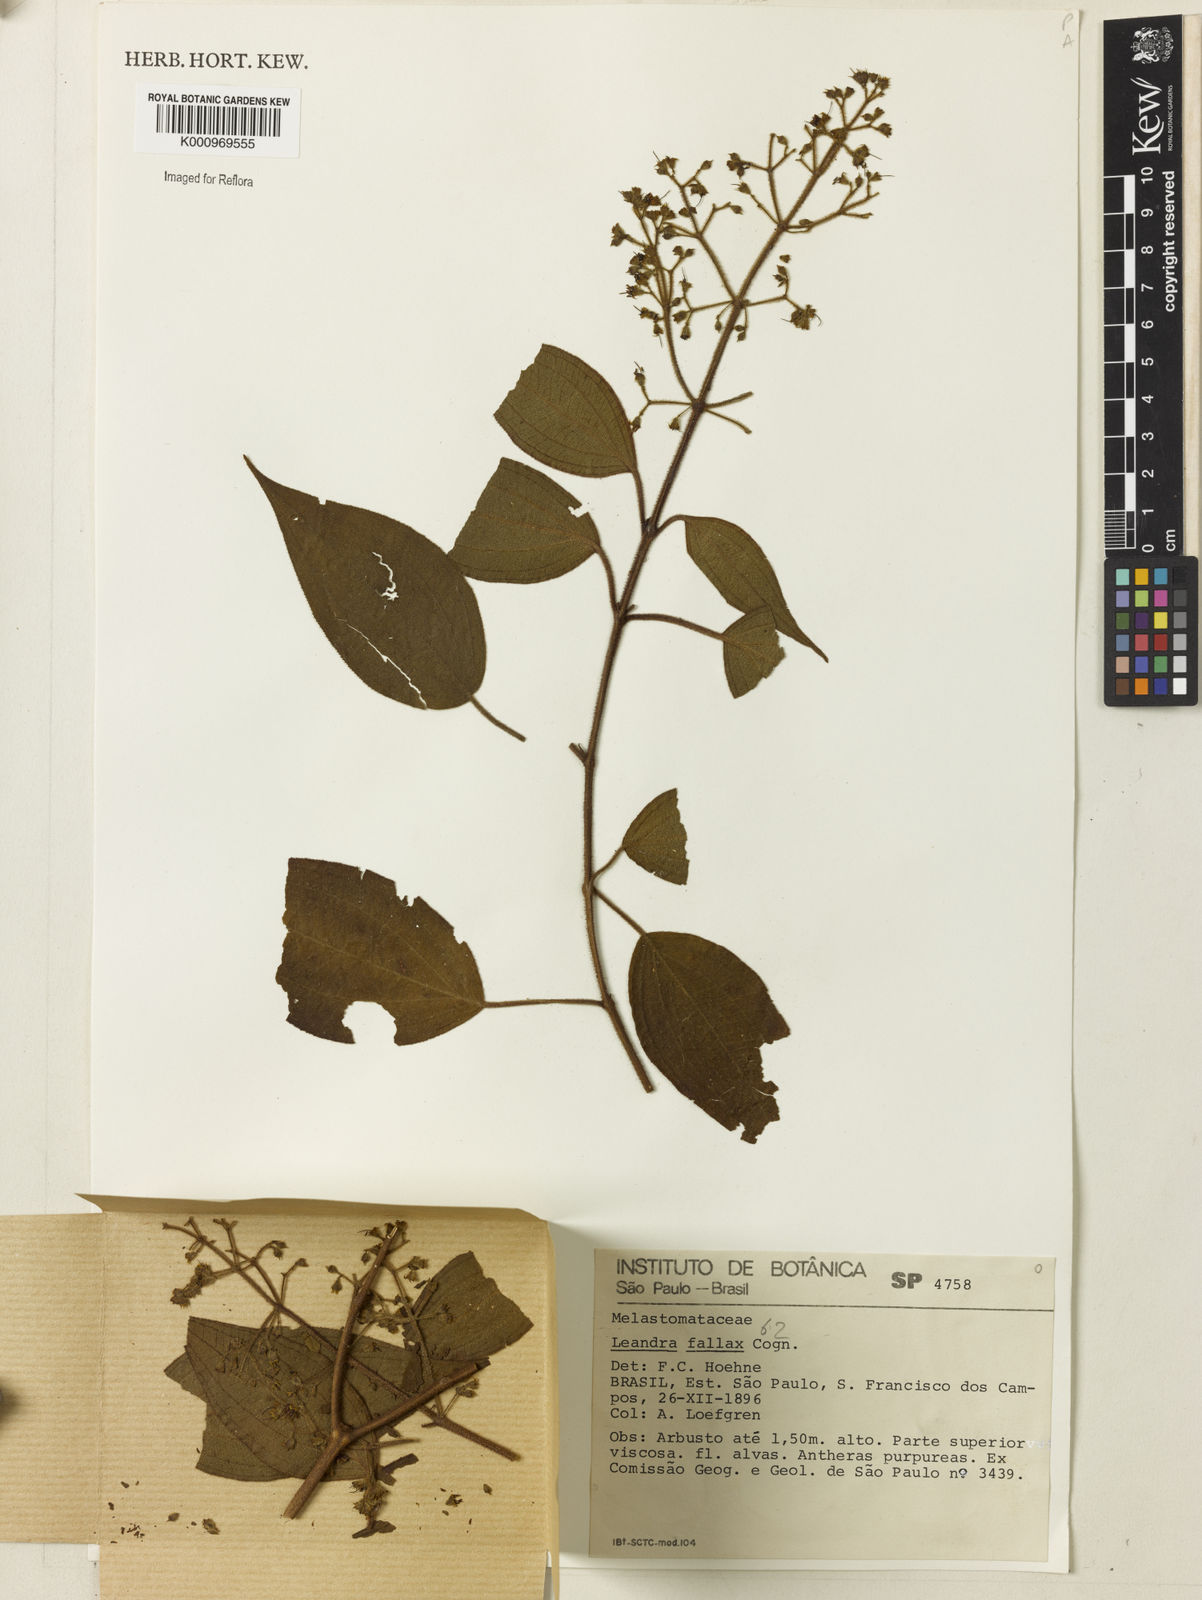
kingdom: Plantae
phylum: Tracheophyta
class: Magnoliopsida
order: Myrtales
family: Melastomataceae
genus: Miconia
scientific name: Miconia leafallax
